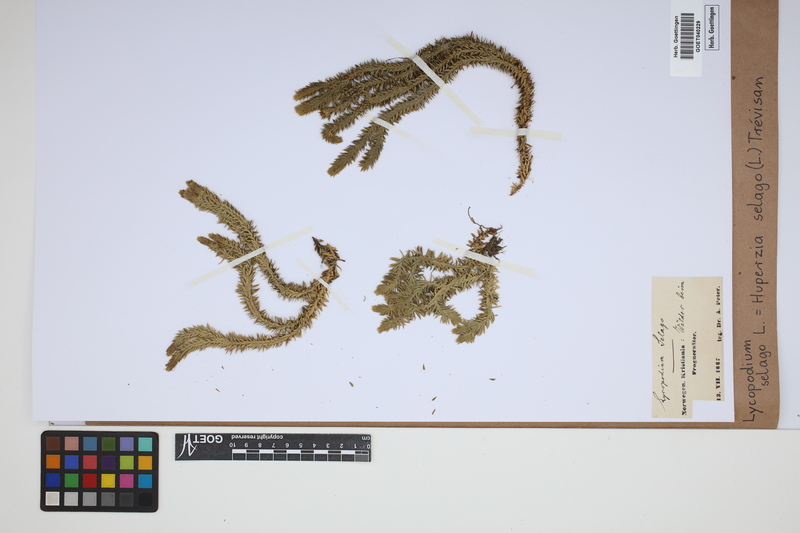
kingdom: Plantae
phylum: Tracheophyta
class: Lycopodiopsida
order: Lycopodiales
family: Lycopodiaceae
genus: Huperzia
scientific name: Huperzia selago
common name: Northern firmoss
